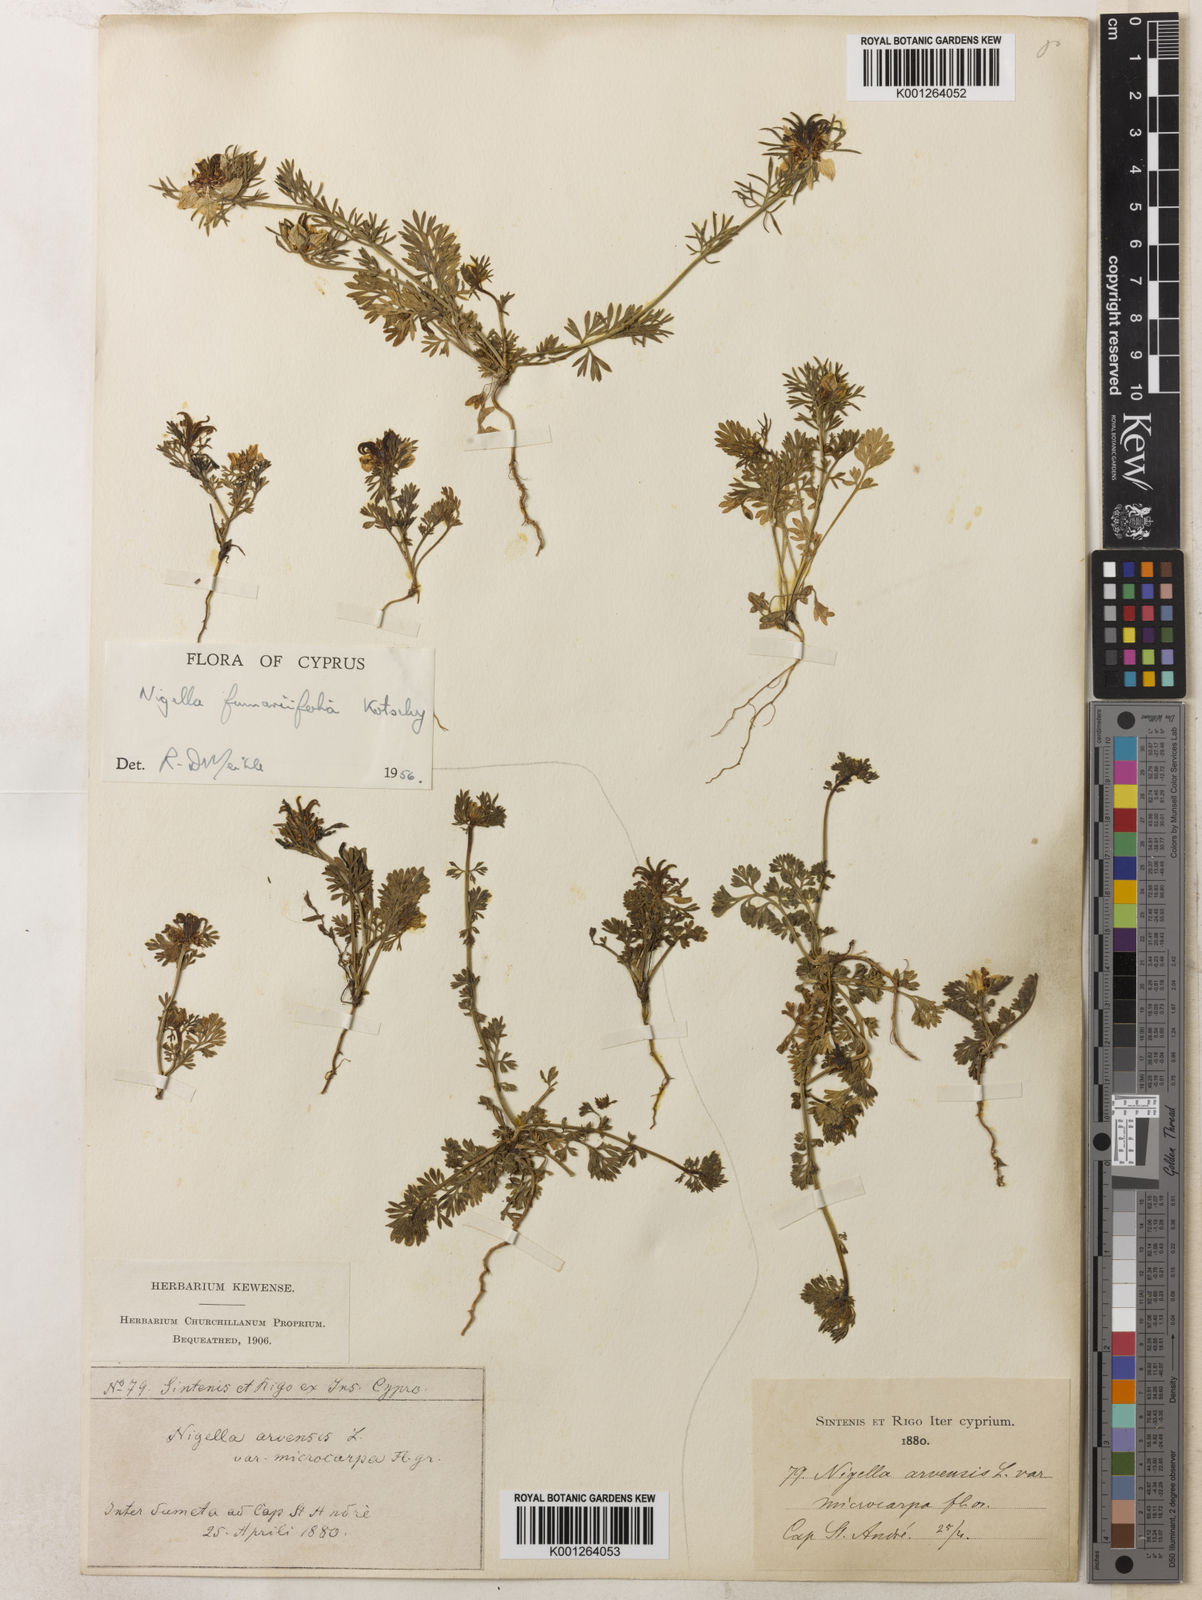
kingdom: Plantae
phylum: Tracheophyta
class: Magnoliopsida
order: Ranunculales
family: Ranunculaceae
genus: Nigella
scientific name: Nigella
